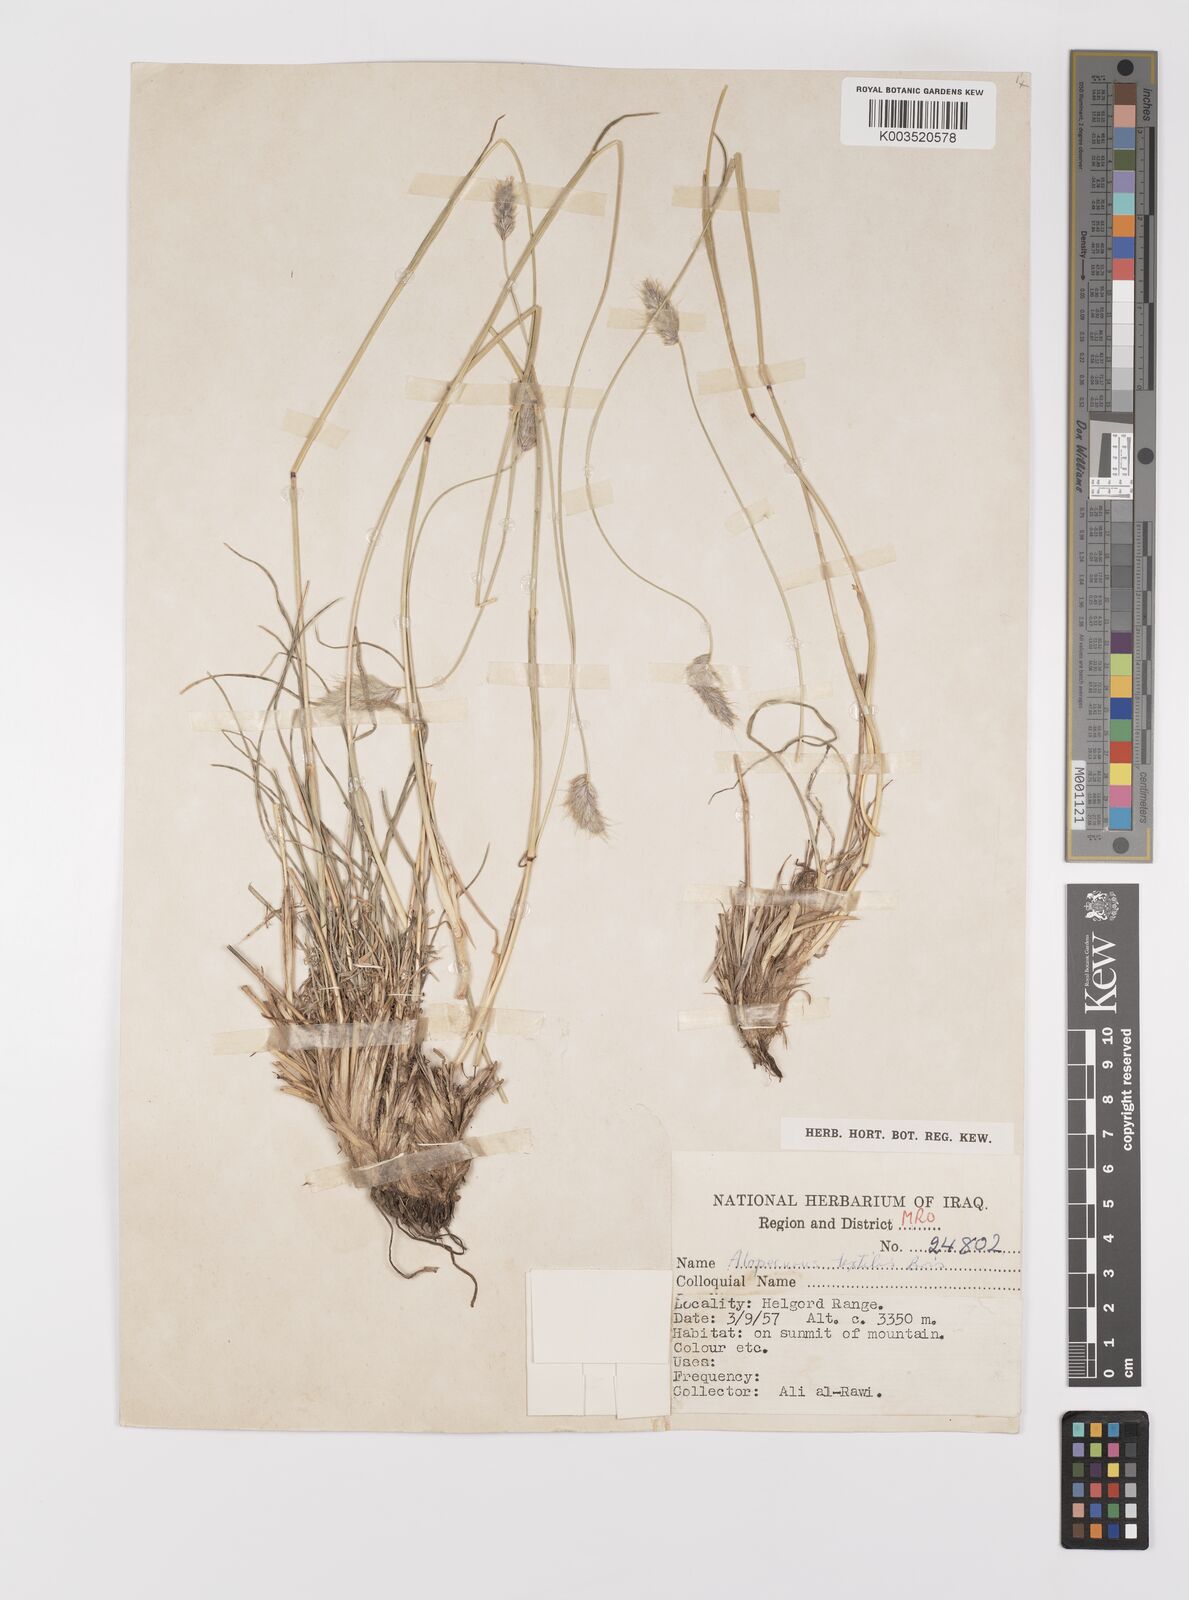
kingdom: Plantae
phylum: Tracheophyta
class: Liliopsida
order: Poales
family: Poaceae
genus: Alopecurus
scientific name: Alopecurus textilis
